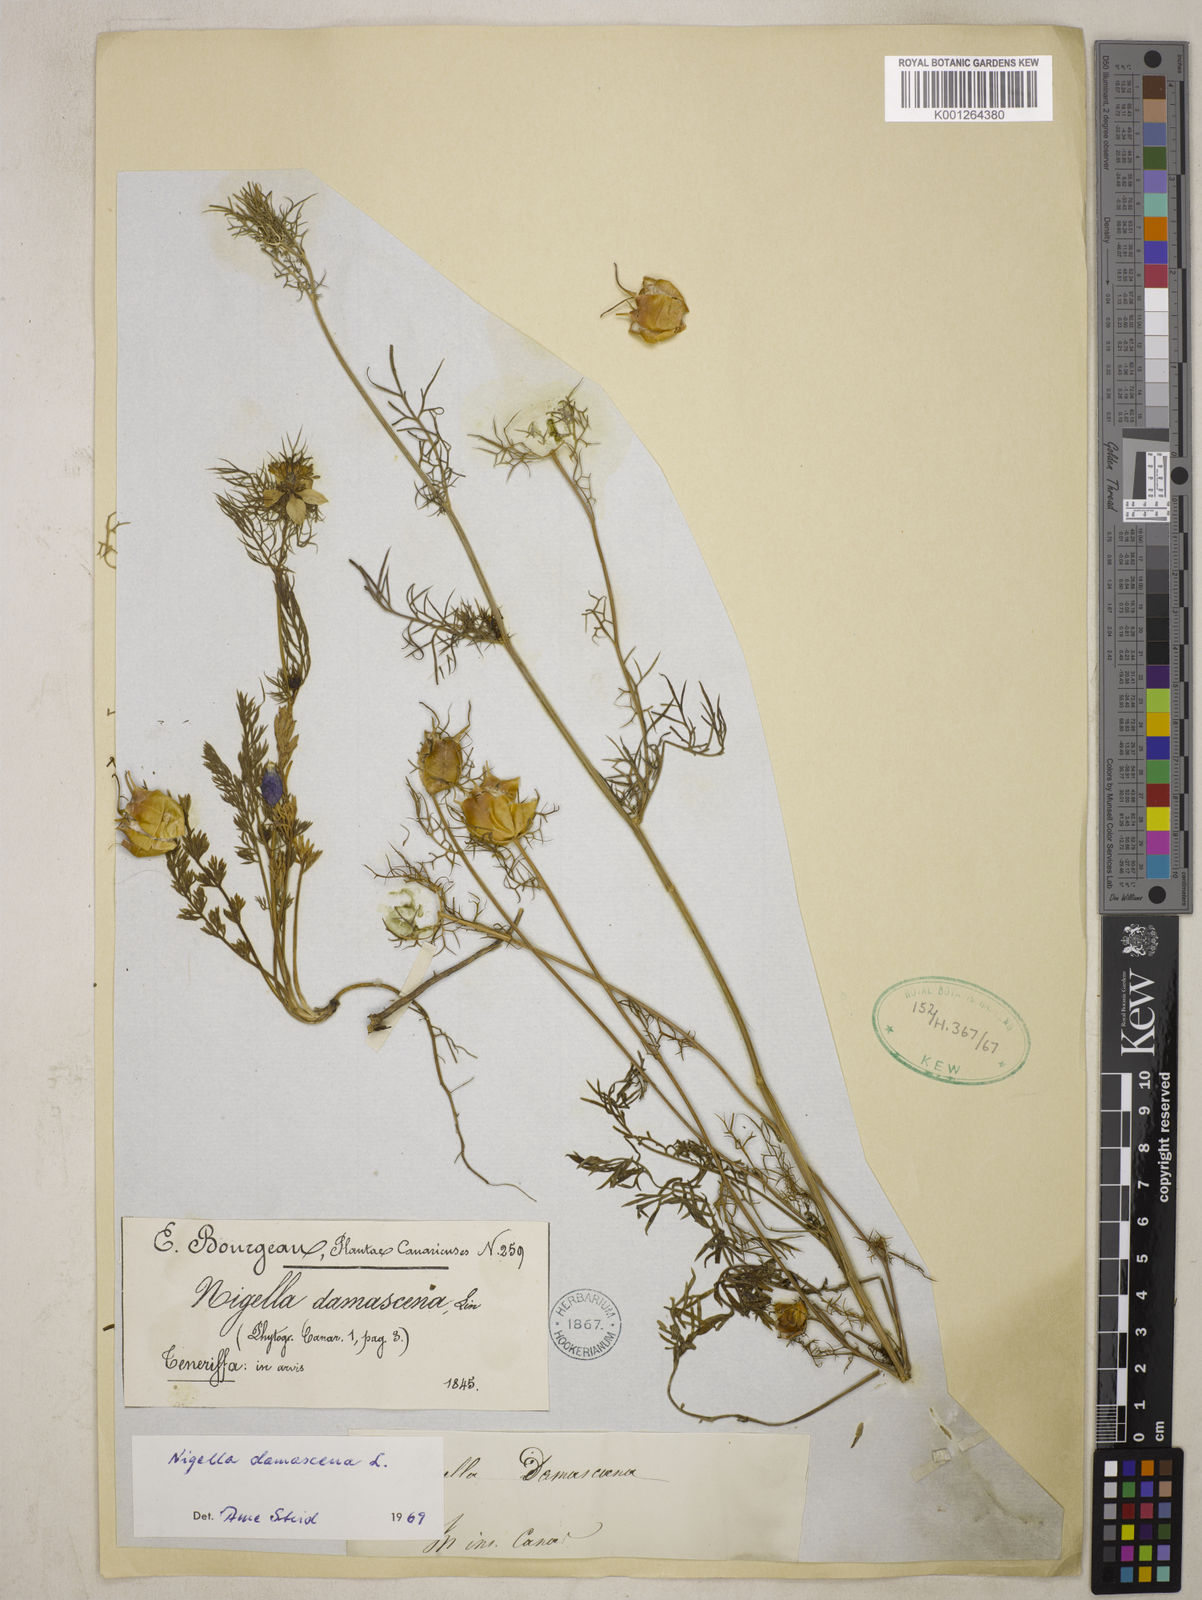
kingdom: Plantae
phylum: Tracheophyta
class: Magnoliopsida
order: Ranunculales
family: Ranunculaceae
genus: Nigella
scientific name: Nigella damascena
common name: Love-in-a-mist
